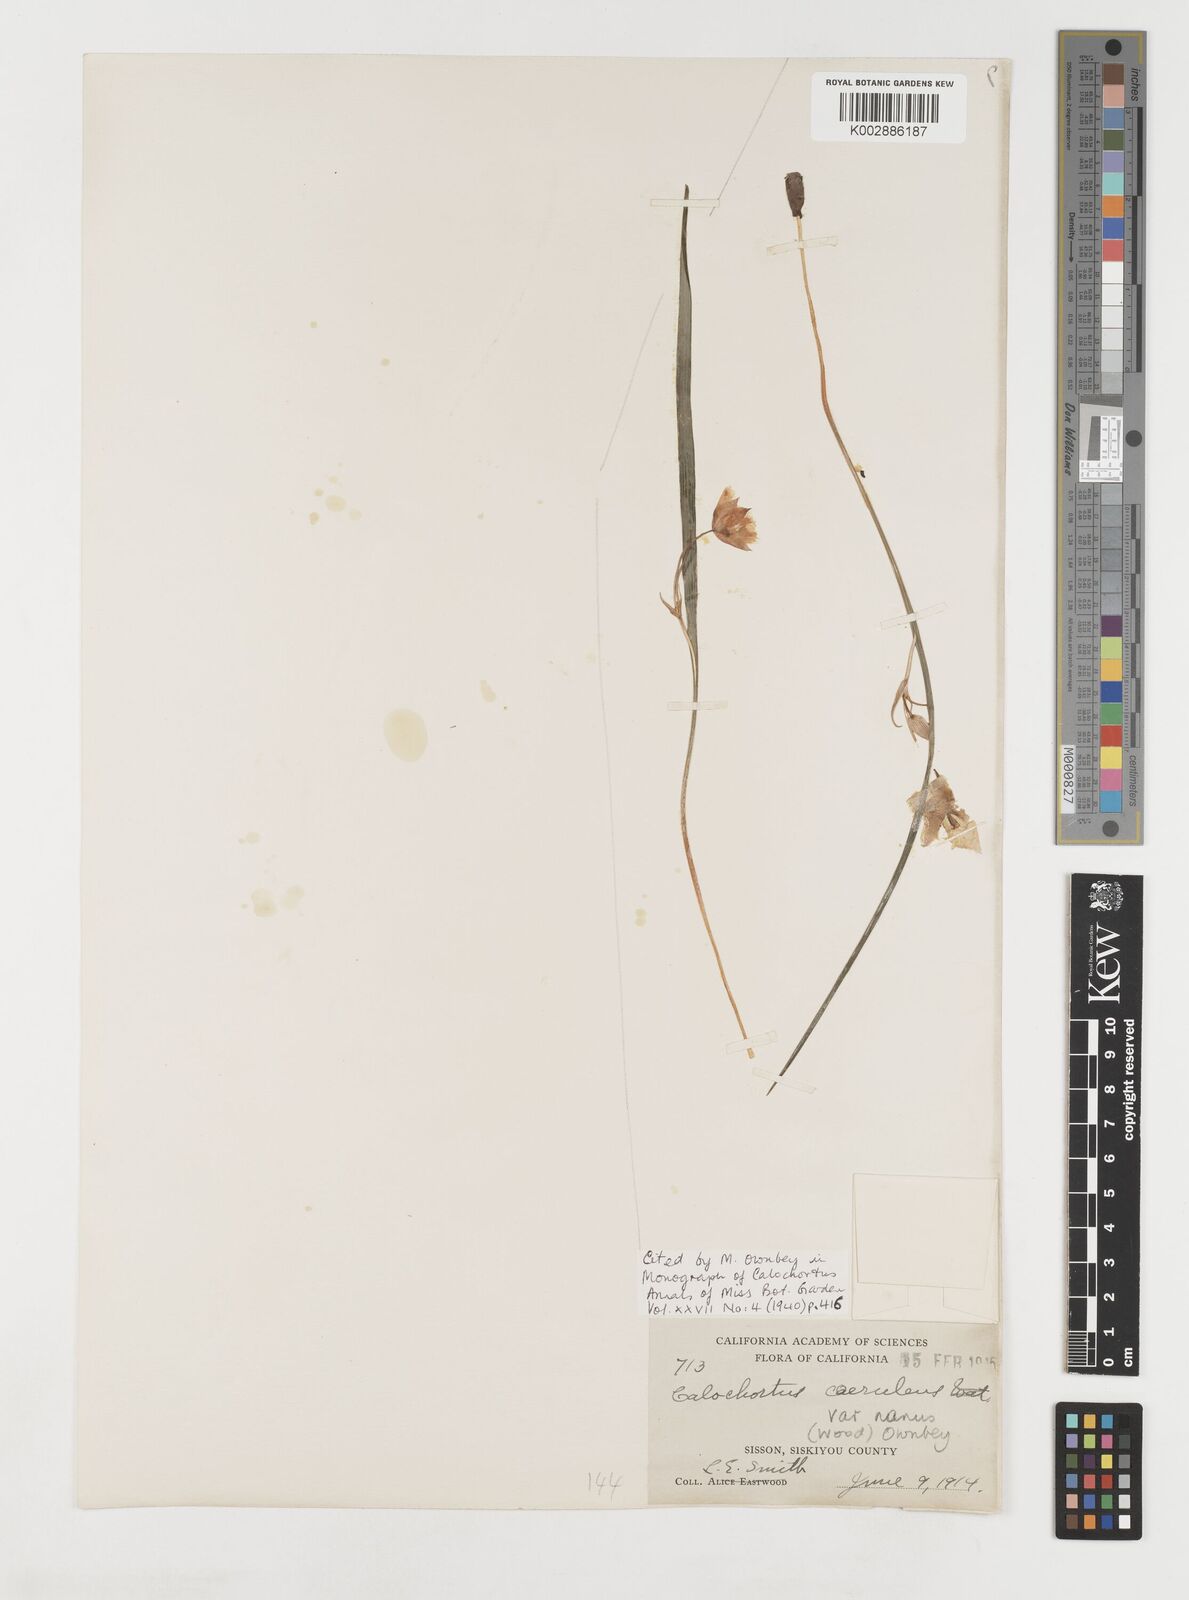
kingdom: Plantae
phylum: Tracheophyta
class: Liliopsida
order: Liliales
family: Liliaceae
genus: Calochortus
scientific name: Calochortus elegans
